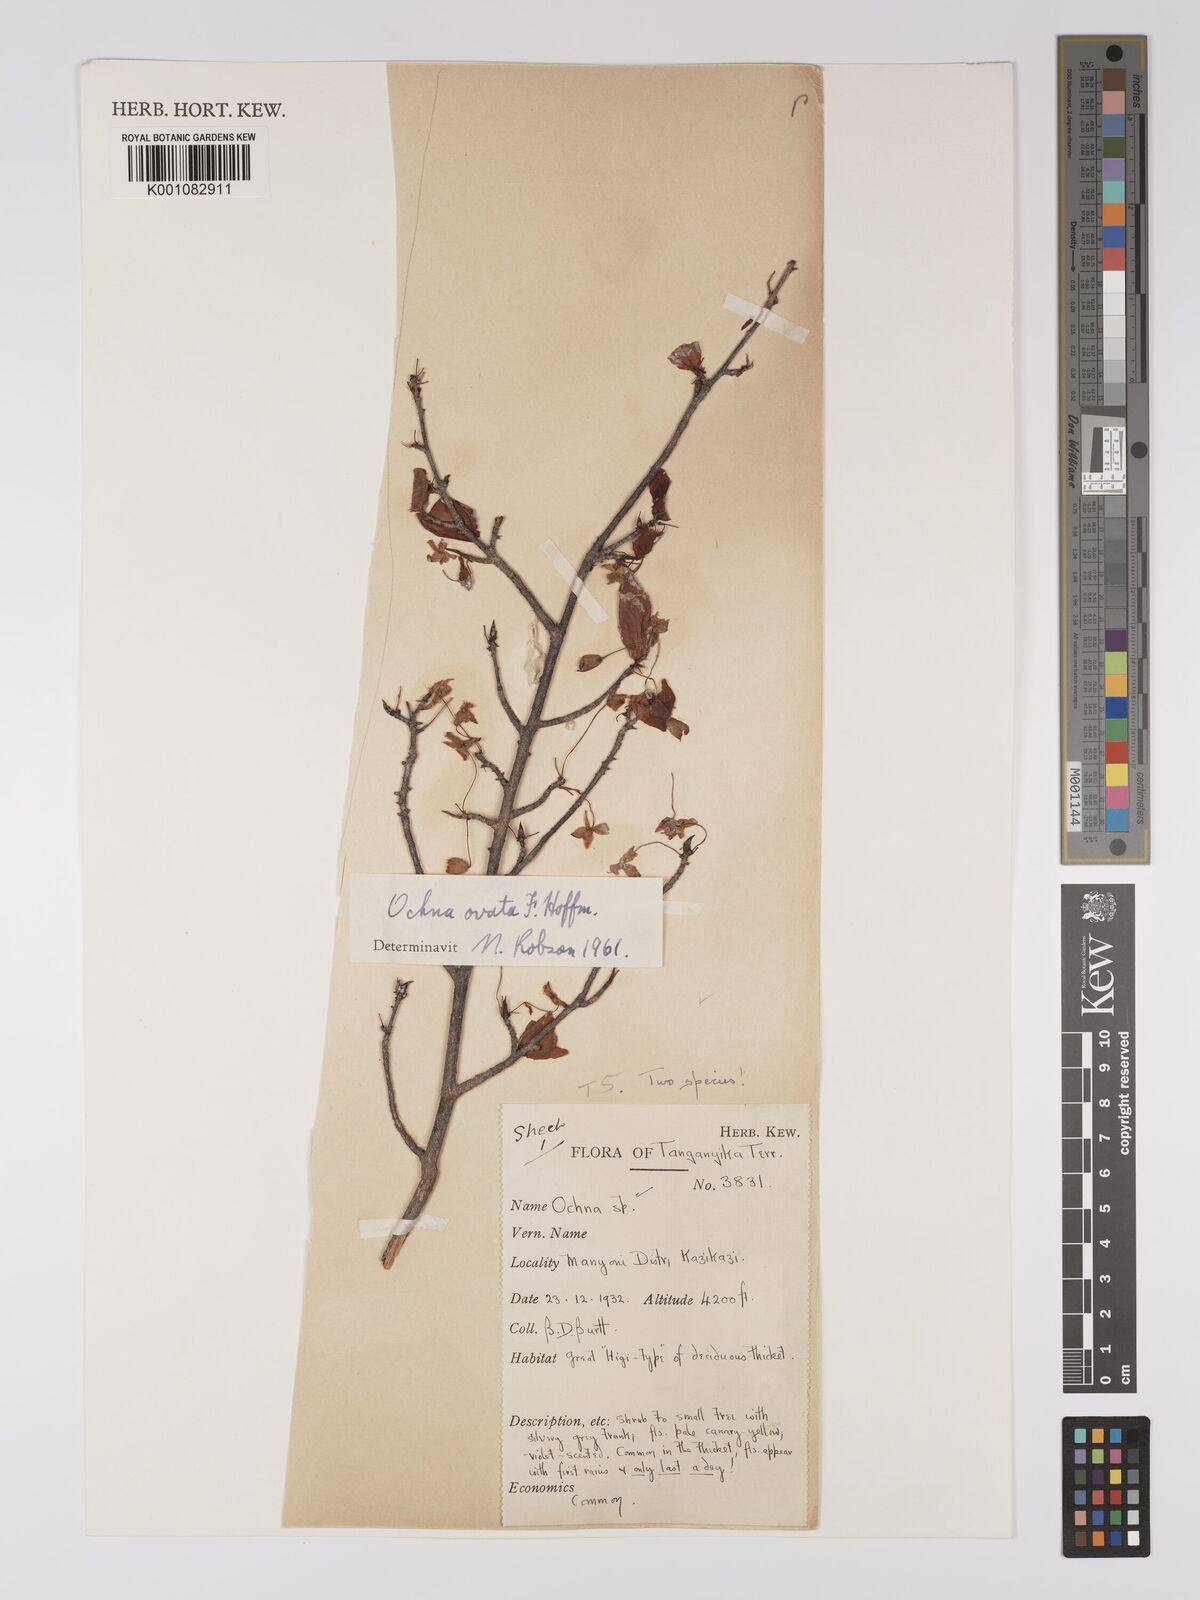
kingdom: Plantae
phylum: Tracheophyta
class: Magnoliopsida
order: Malpighiales
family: Ochnaceae
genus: Ochna
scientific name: Ochna ovata
